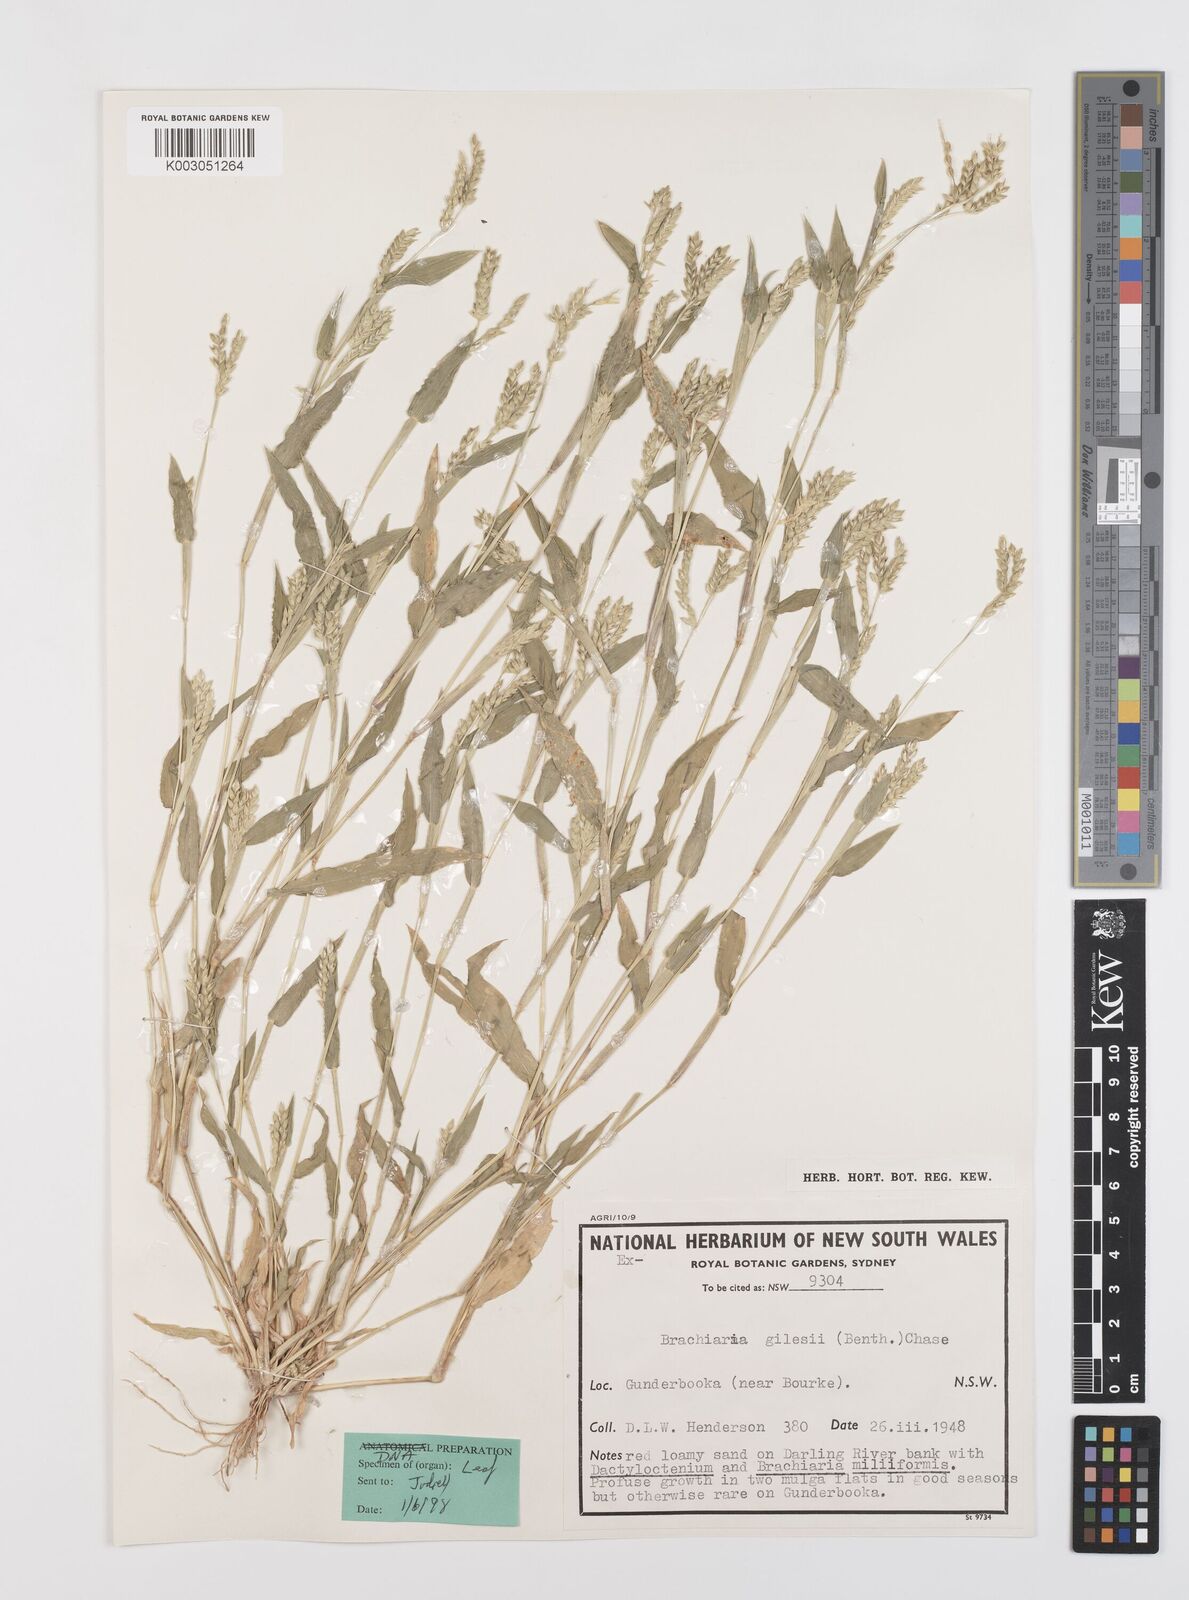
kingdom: Plantae
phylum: Tracheophyta
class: Liliopsida
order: Poales
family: Poaceae
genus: Urochloa
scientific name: Urochloa gilesii
